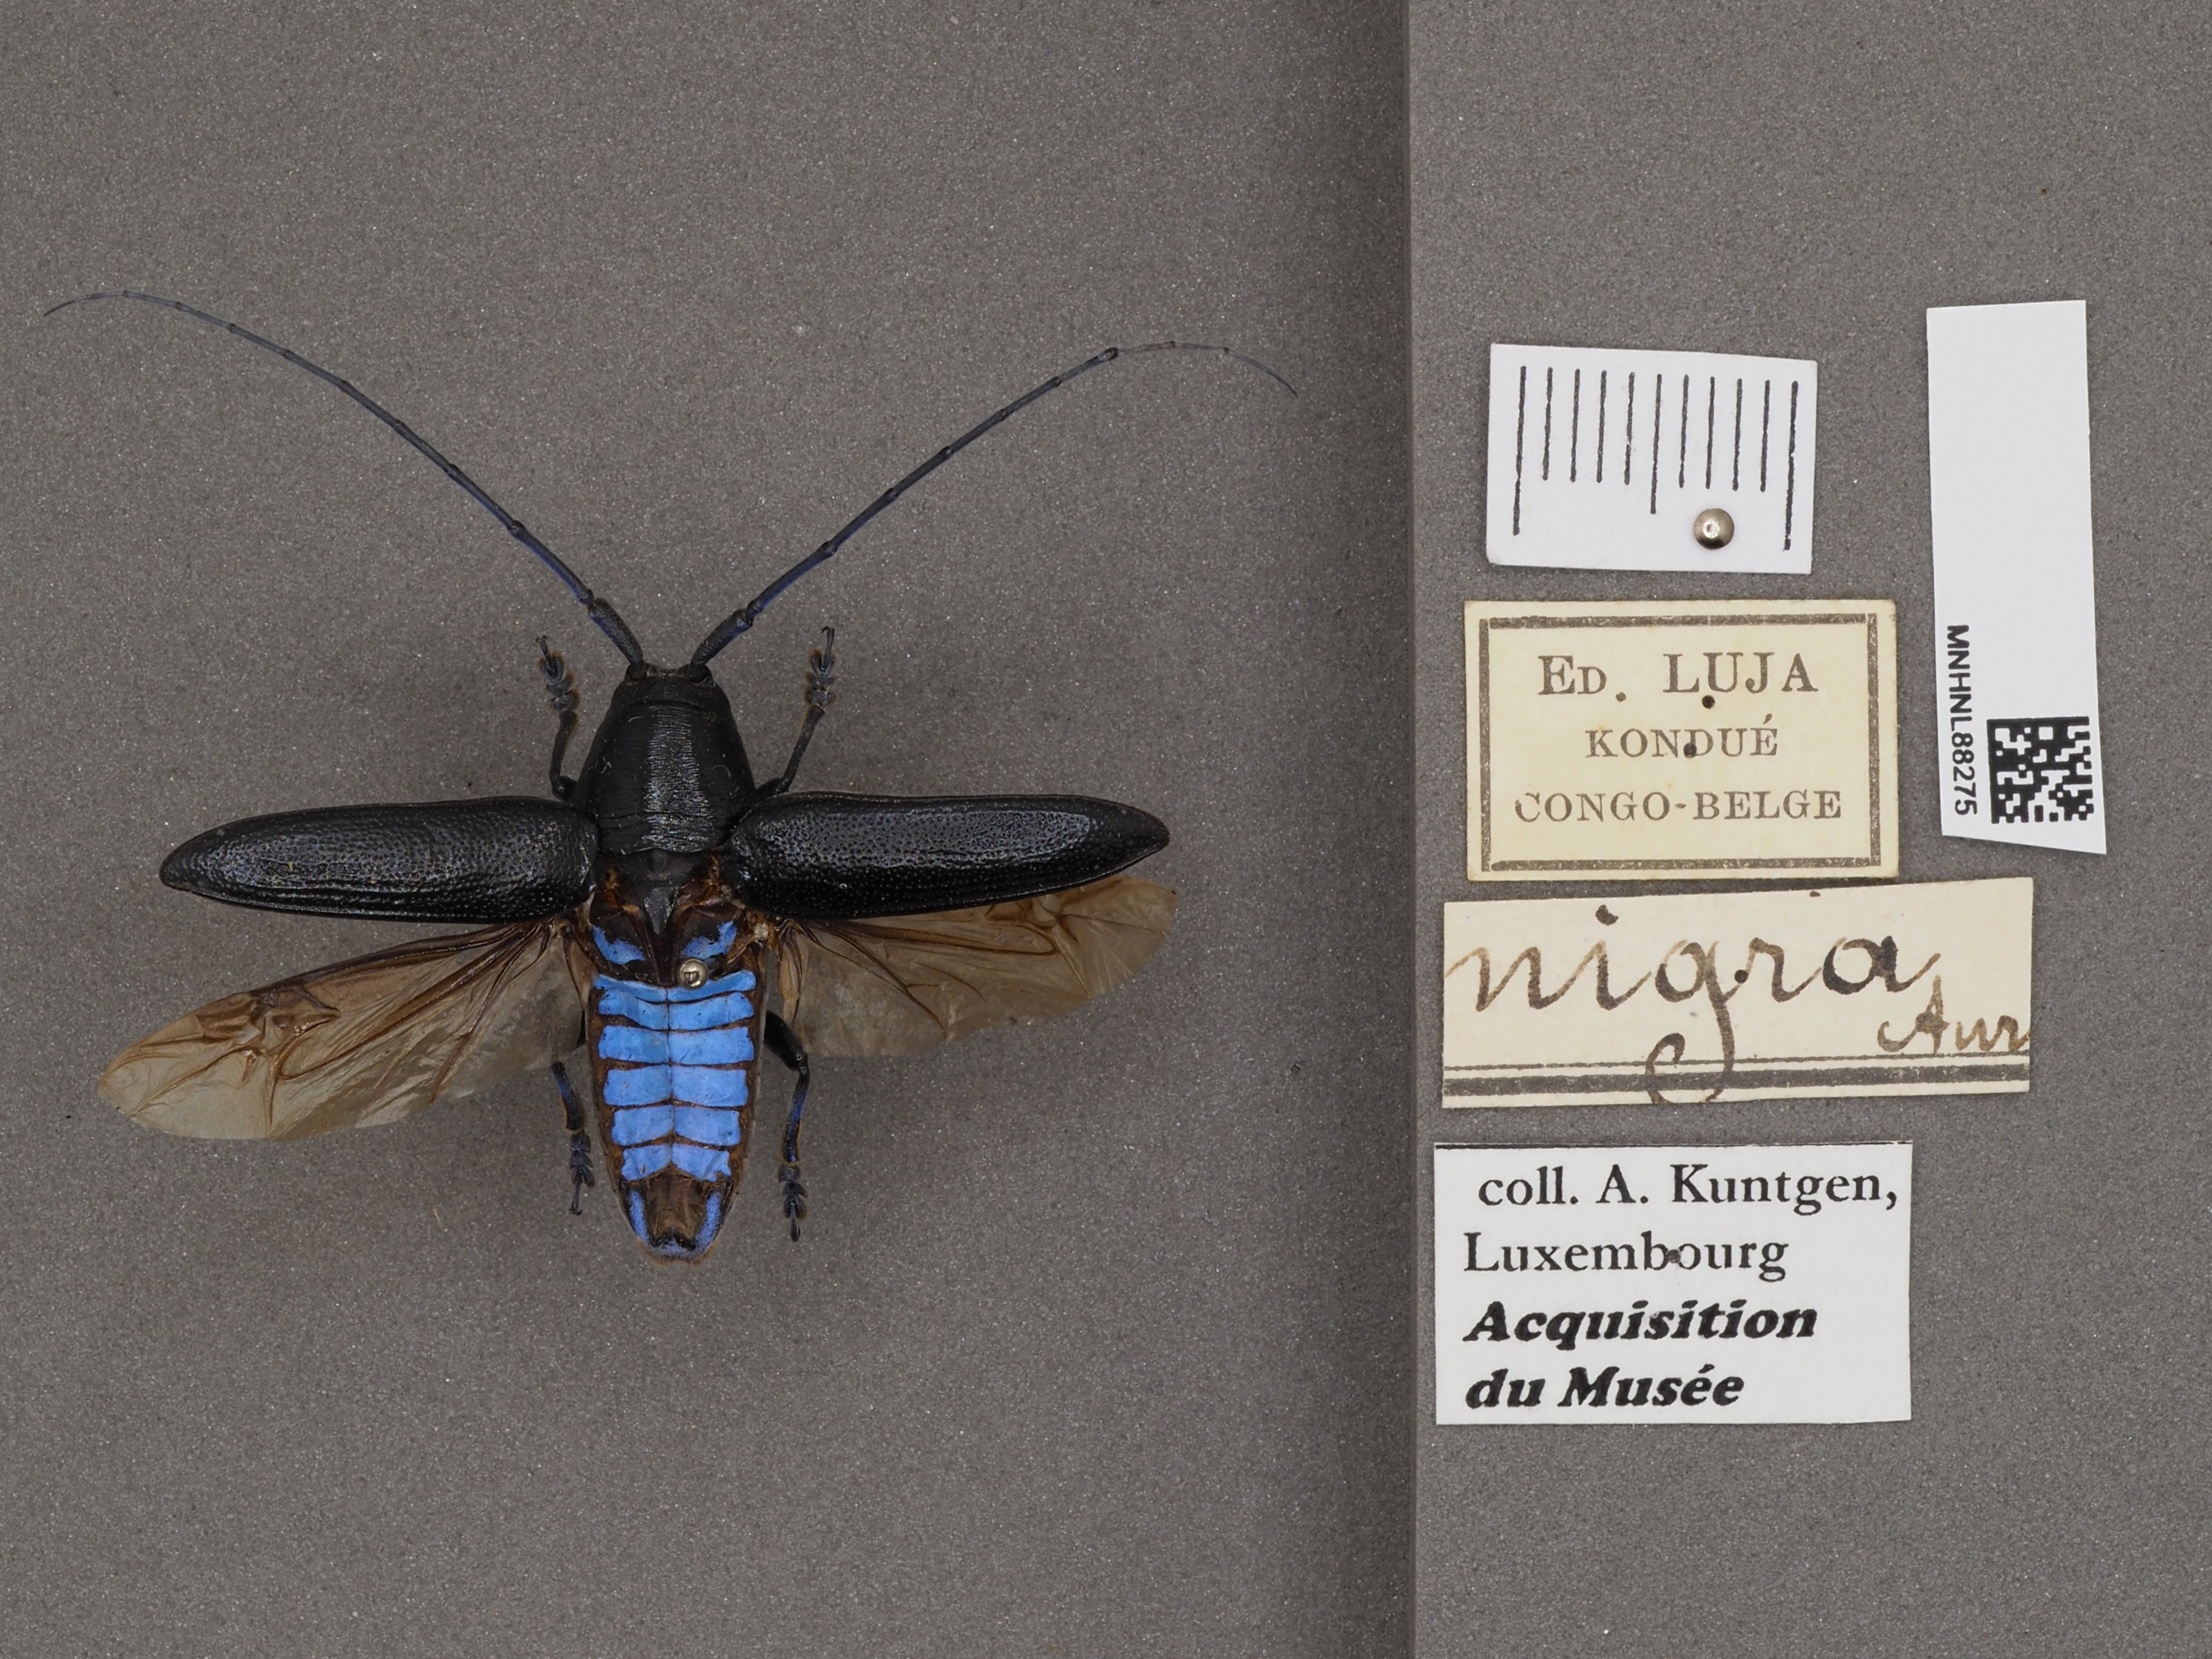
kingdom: Animalia
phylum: Arthropoda
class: Insecta
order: Coleoptera
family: Cerambycidae
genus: Pinacosterna
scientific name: Pinacosterna nachtigali
